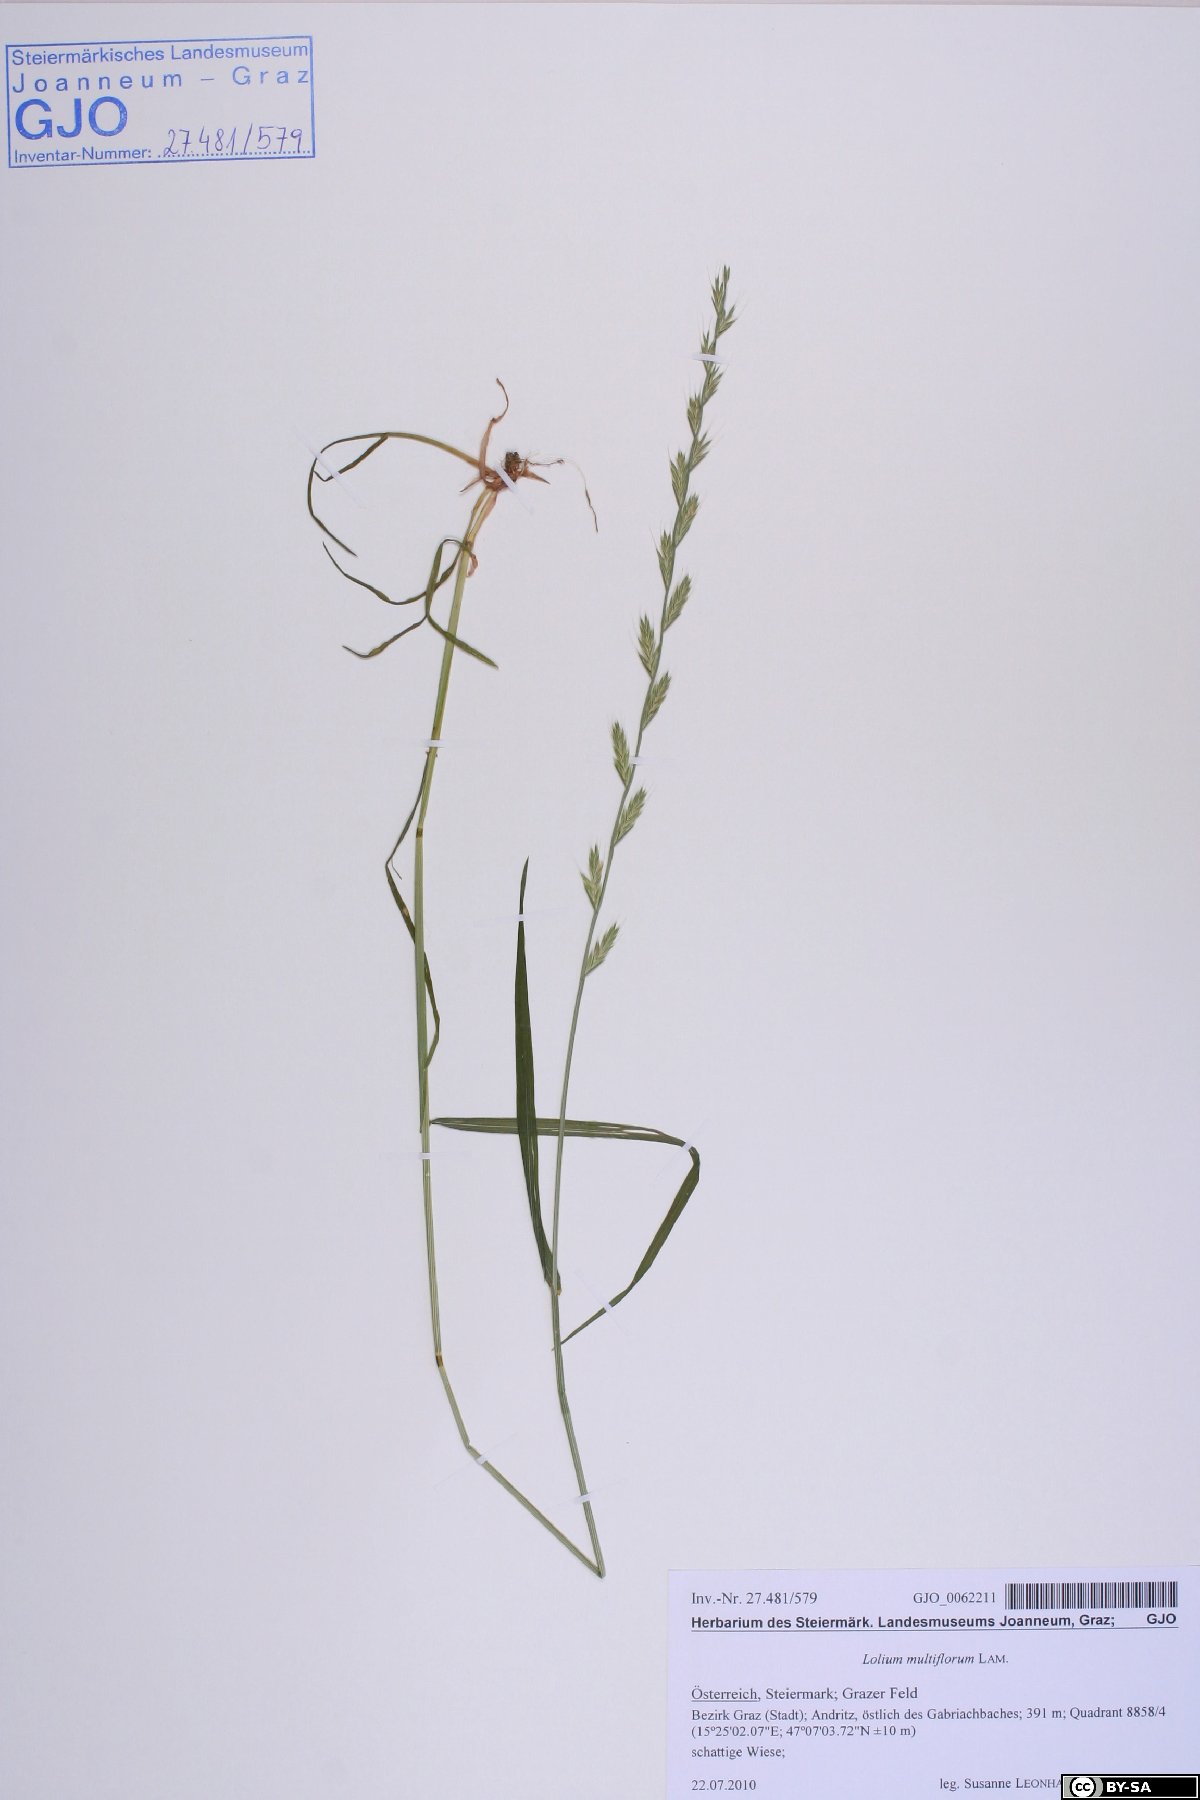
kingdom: Plantae
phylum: Tracheophyta
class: Liliopsida
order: Poales
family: Poaceae
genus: Lolium
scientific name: Lolium multiflorum
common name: Annual ryegrass
